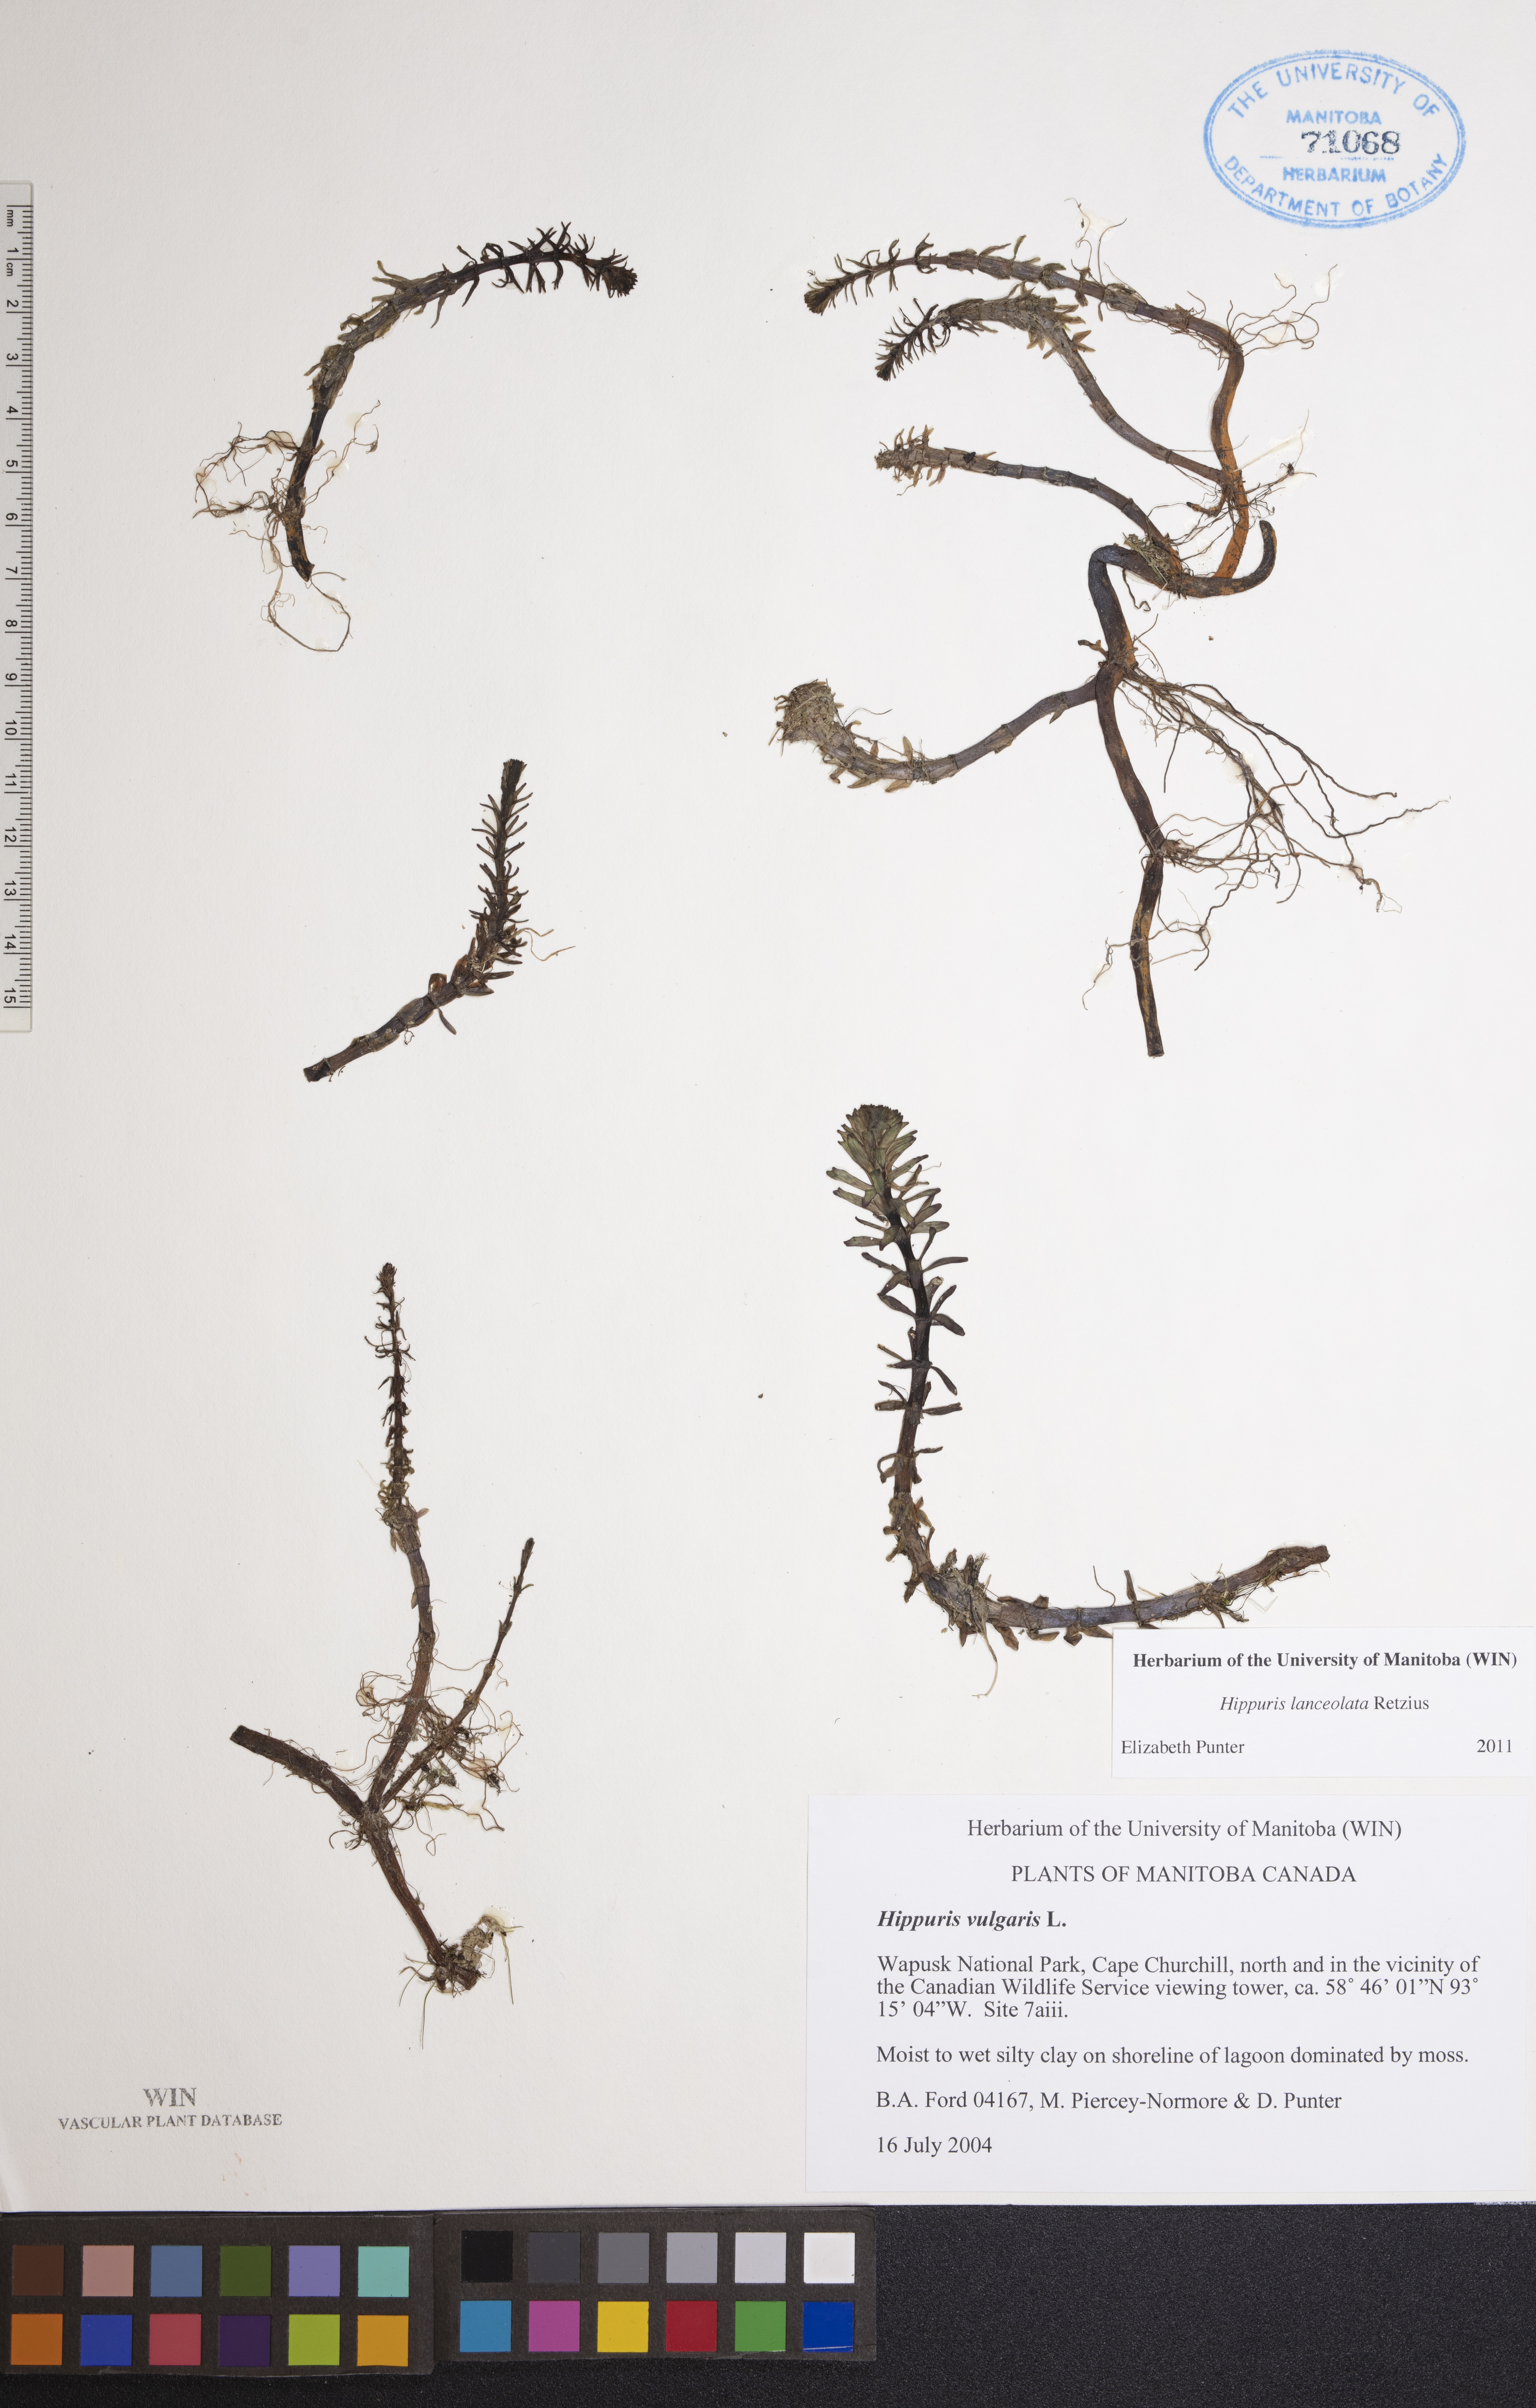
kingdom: Plantae
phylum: Tracheophyta
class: Magnoliopsida
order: Lamiales
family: Plantaginaceae
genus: Hippuris
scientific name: Hippuris lanceolata
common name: Lance-leaved mare's-tail
